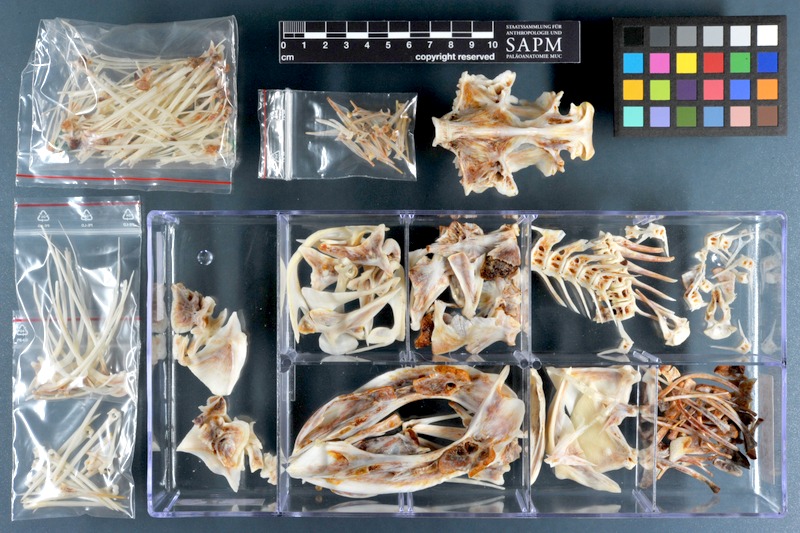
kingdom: Animalia
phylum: Chordata
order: Scorpaeniformes
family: Synanceiidae
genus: Synanceia
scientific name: Synanceia verrucosa
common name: Stonefish
